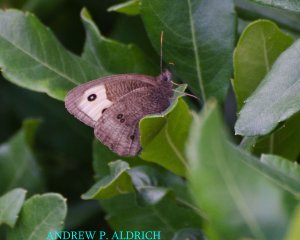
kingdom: Animalia
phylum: Arthropoda
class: Insecta
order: Lepidoptera
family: Nymphalidae
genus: Cercyonis
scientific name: Cercyonis pegala
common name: Common Wood-Nymph
